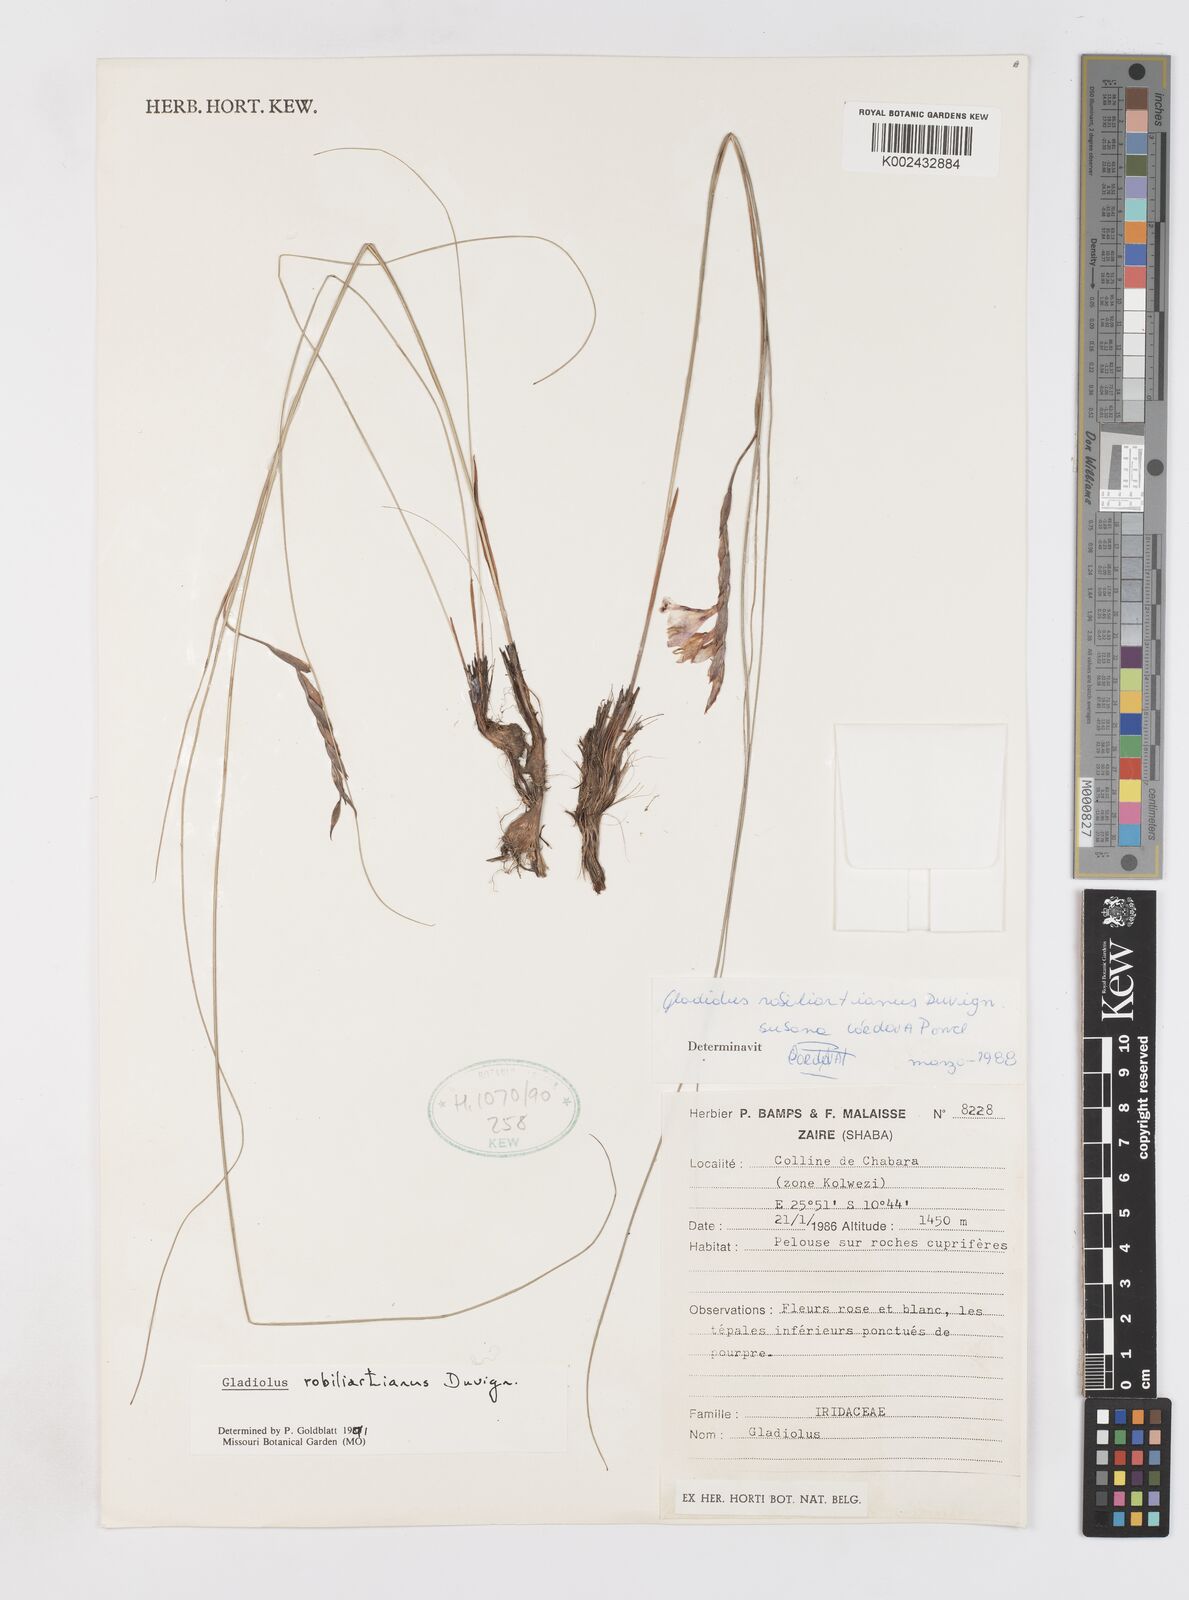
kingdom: Plantae
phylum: Tracheophyta
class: Liliopsida
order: Asparagales
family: Iridaceae
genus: Gladiolus
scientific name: Gladiolus robiliartianus
